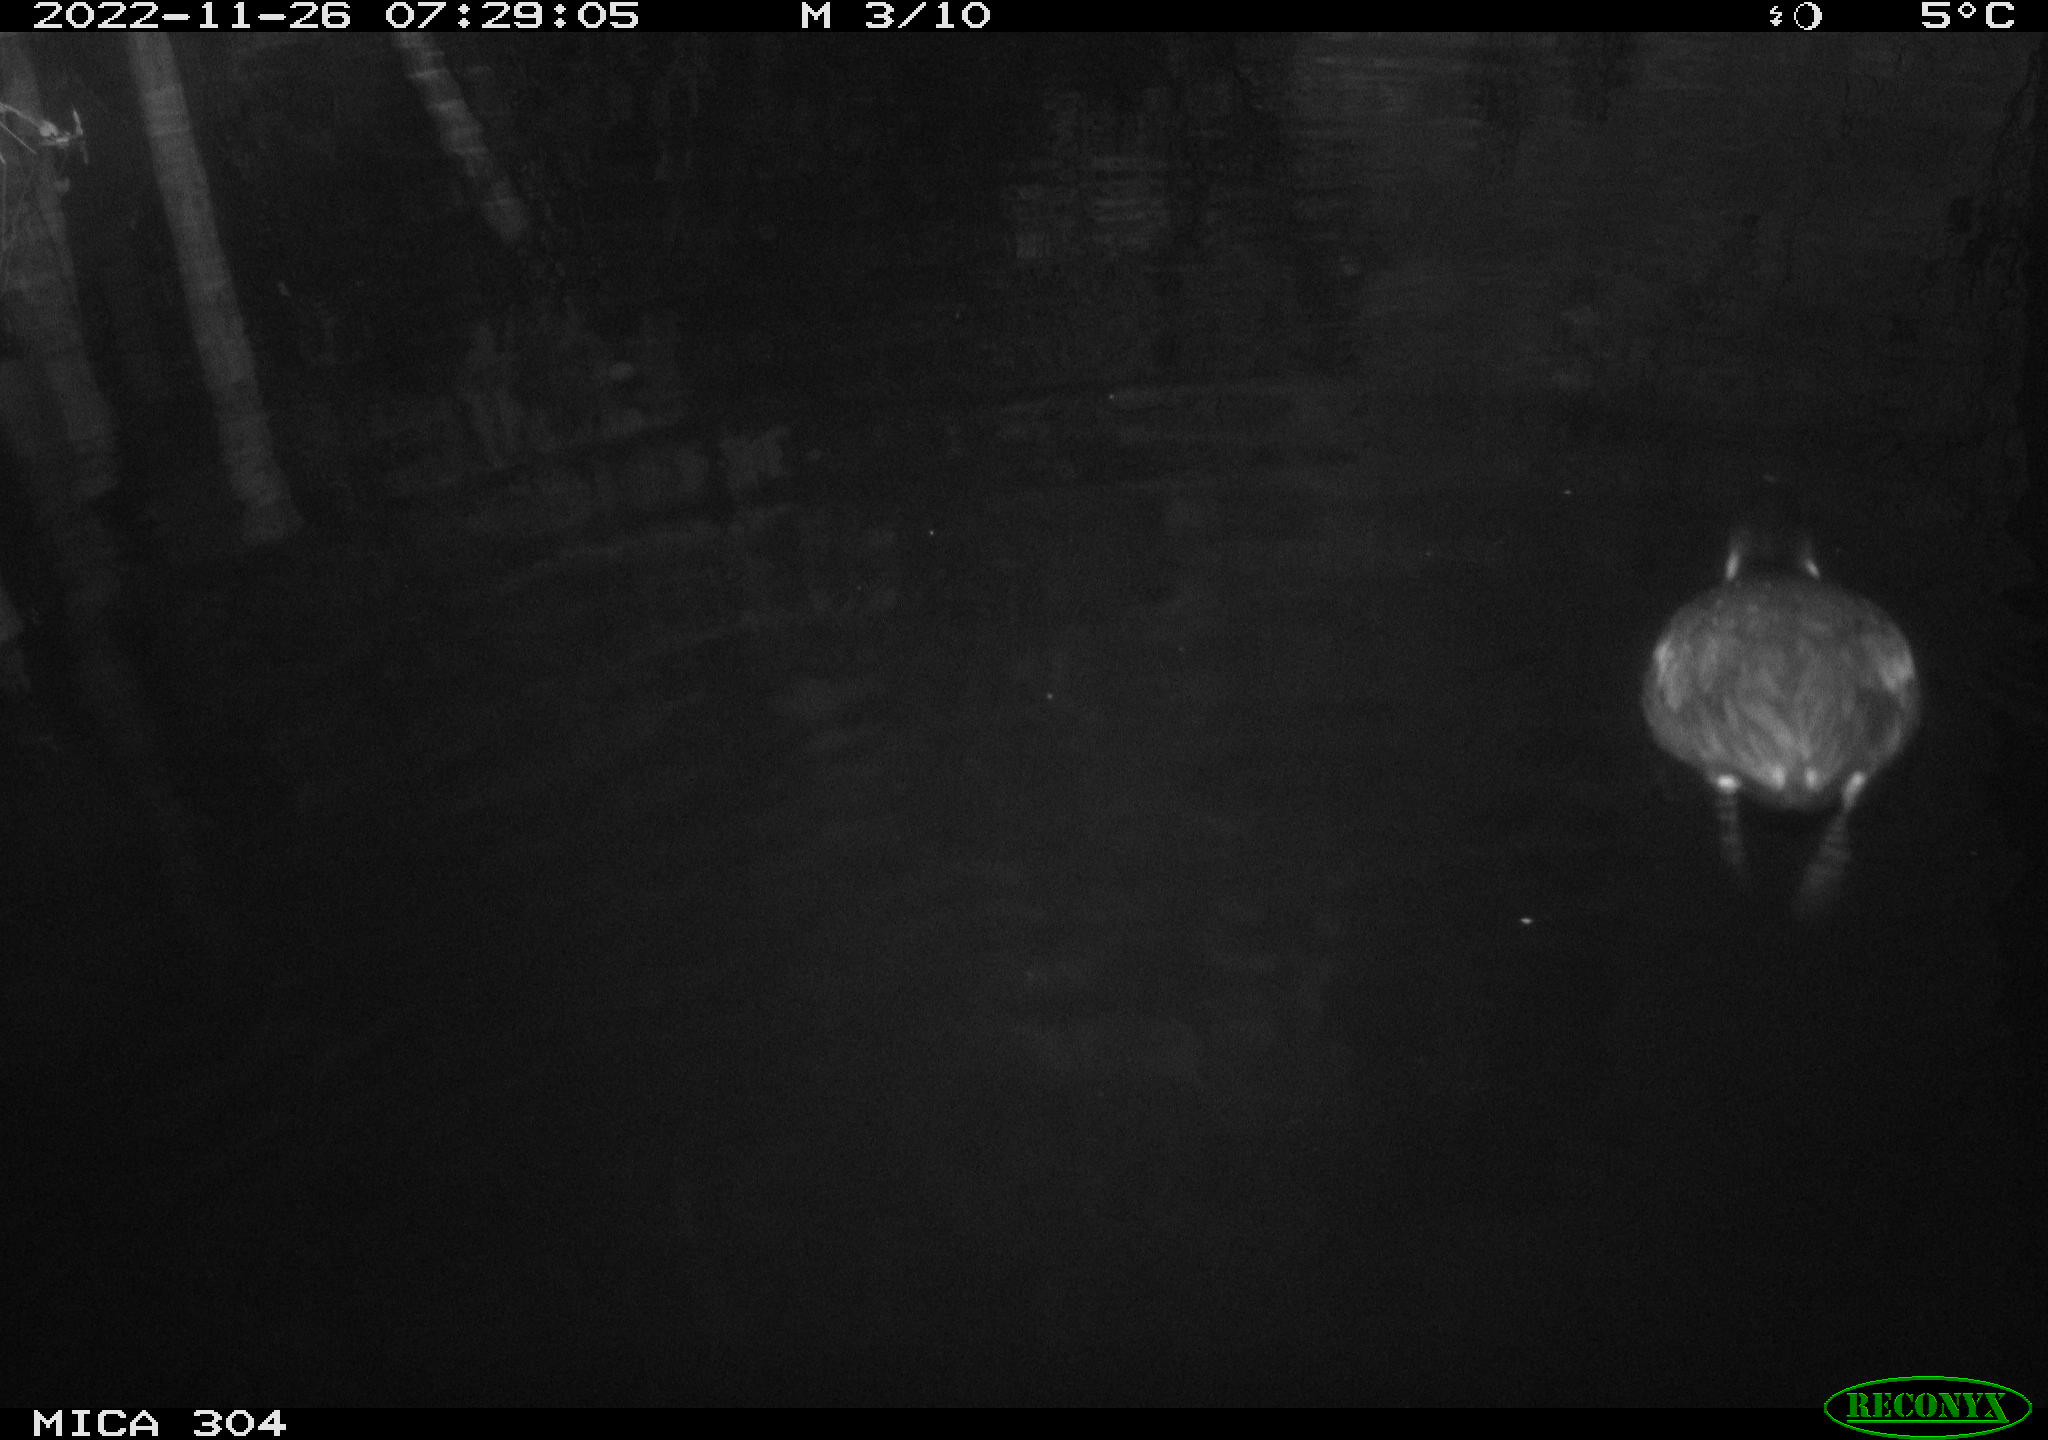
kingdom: Animalia
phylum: Chordata
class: Aves
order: Anseriformes
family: Anatidae
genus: Anas
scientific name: Anas
